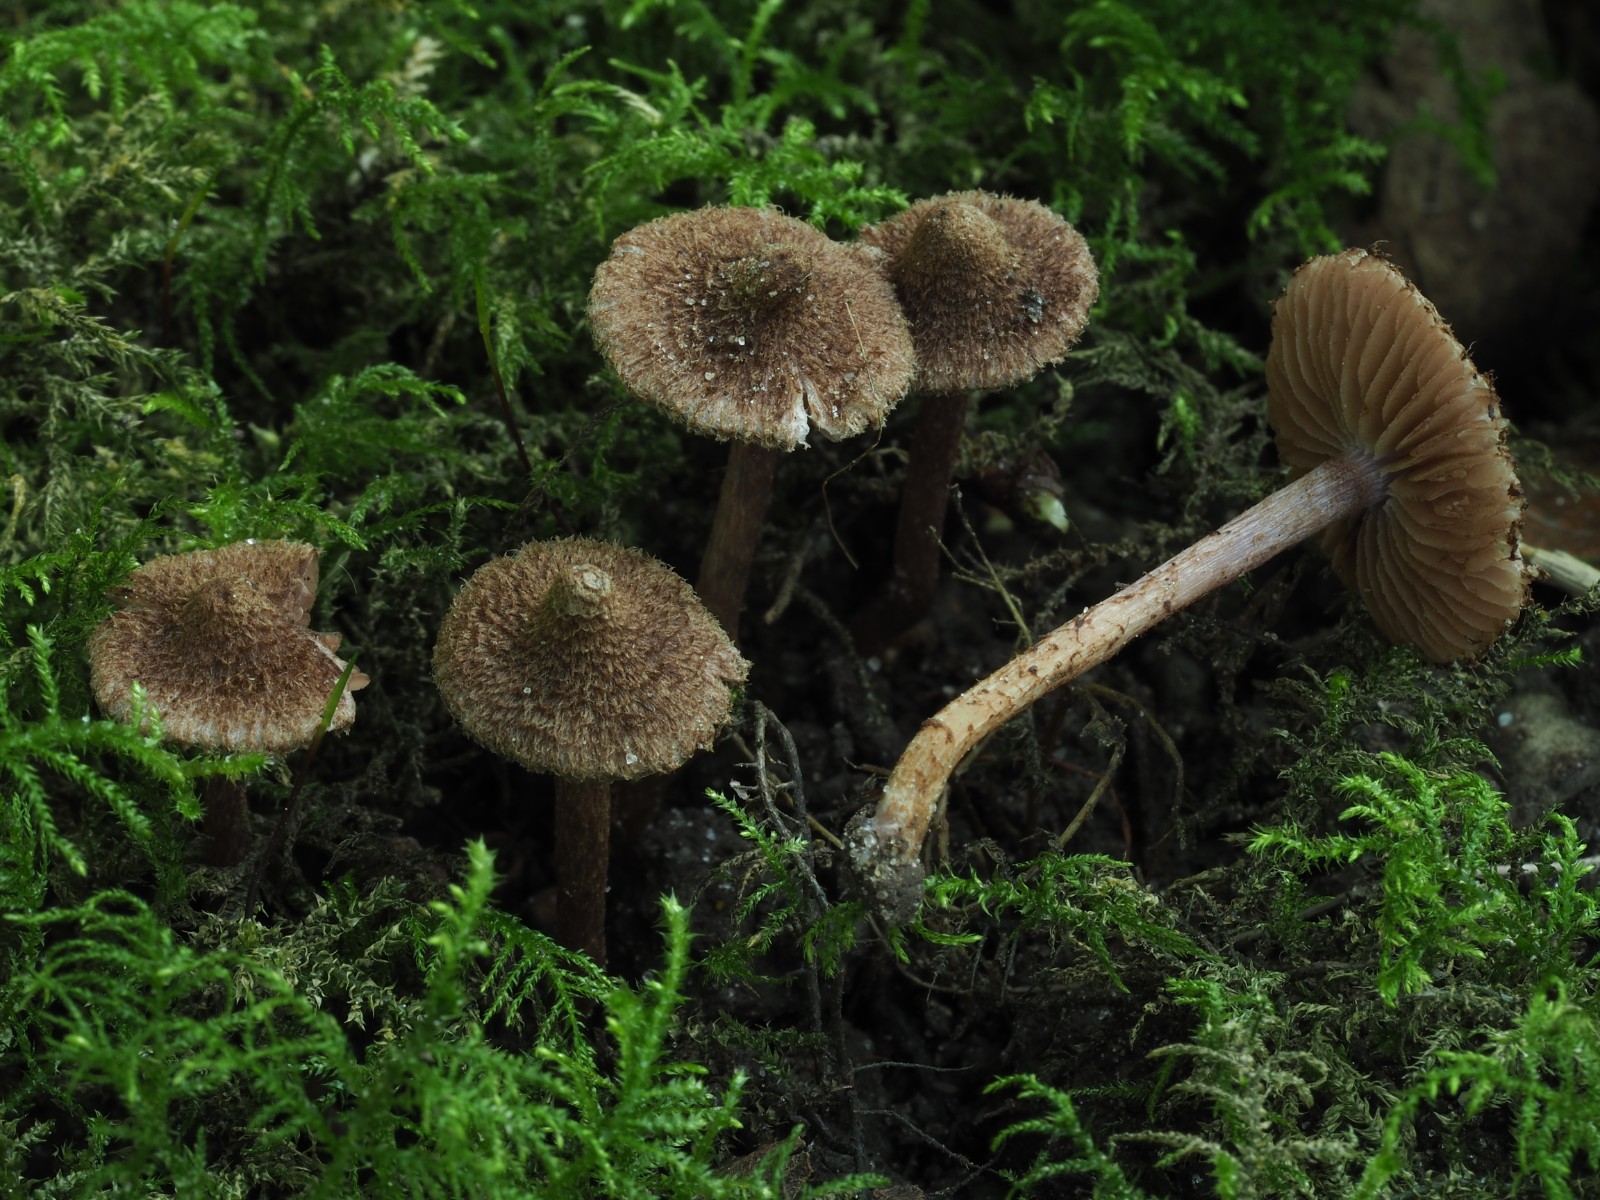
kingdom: Fungi
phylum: Basidiomycota
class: Agaricomycetes
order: Agaricales
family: Inocybaceae
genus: Inocybe
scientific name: Inocybe cincinnata
